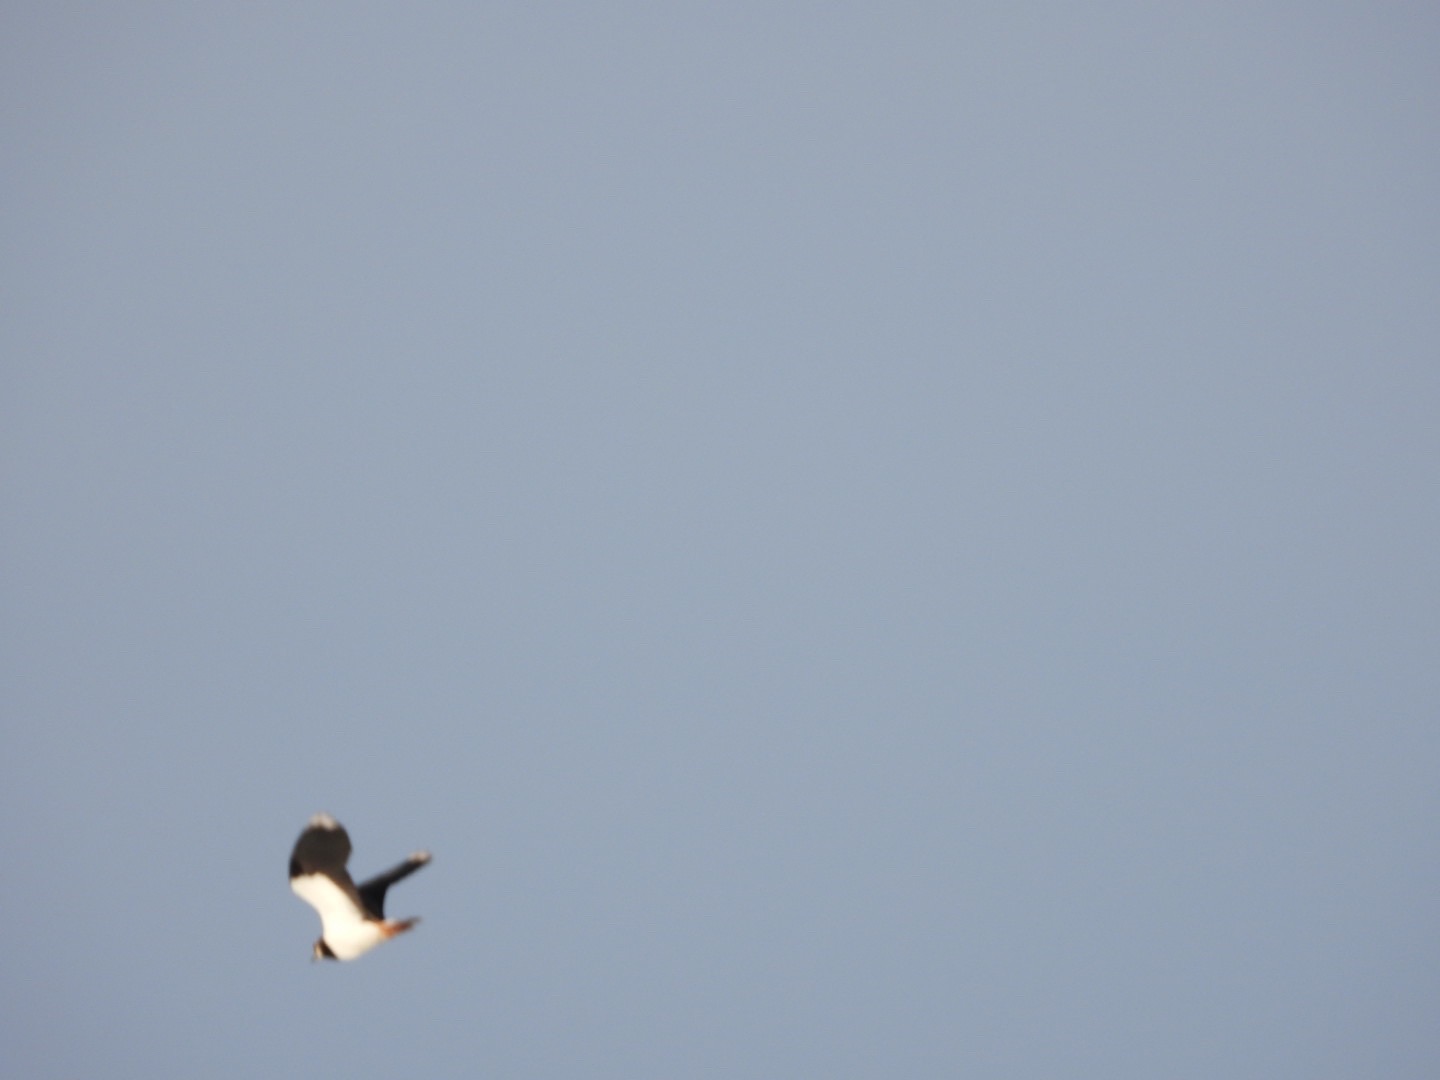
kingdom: Animalia
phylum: Chordata
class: Aves
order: Charadriiformes
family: Charadriidae
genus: Vanellus
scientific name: Vanellus vanellus
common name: Vibe
